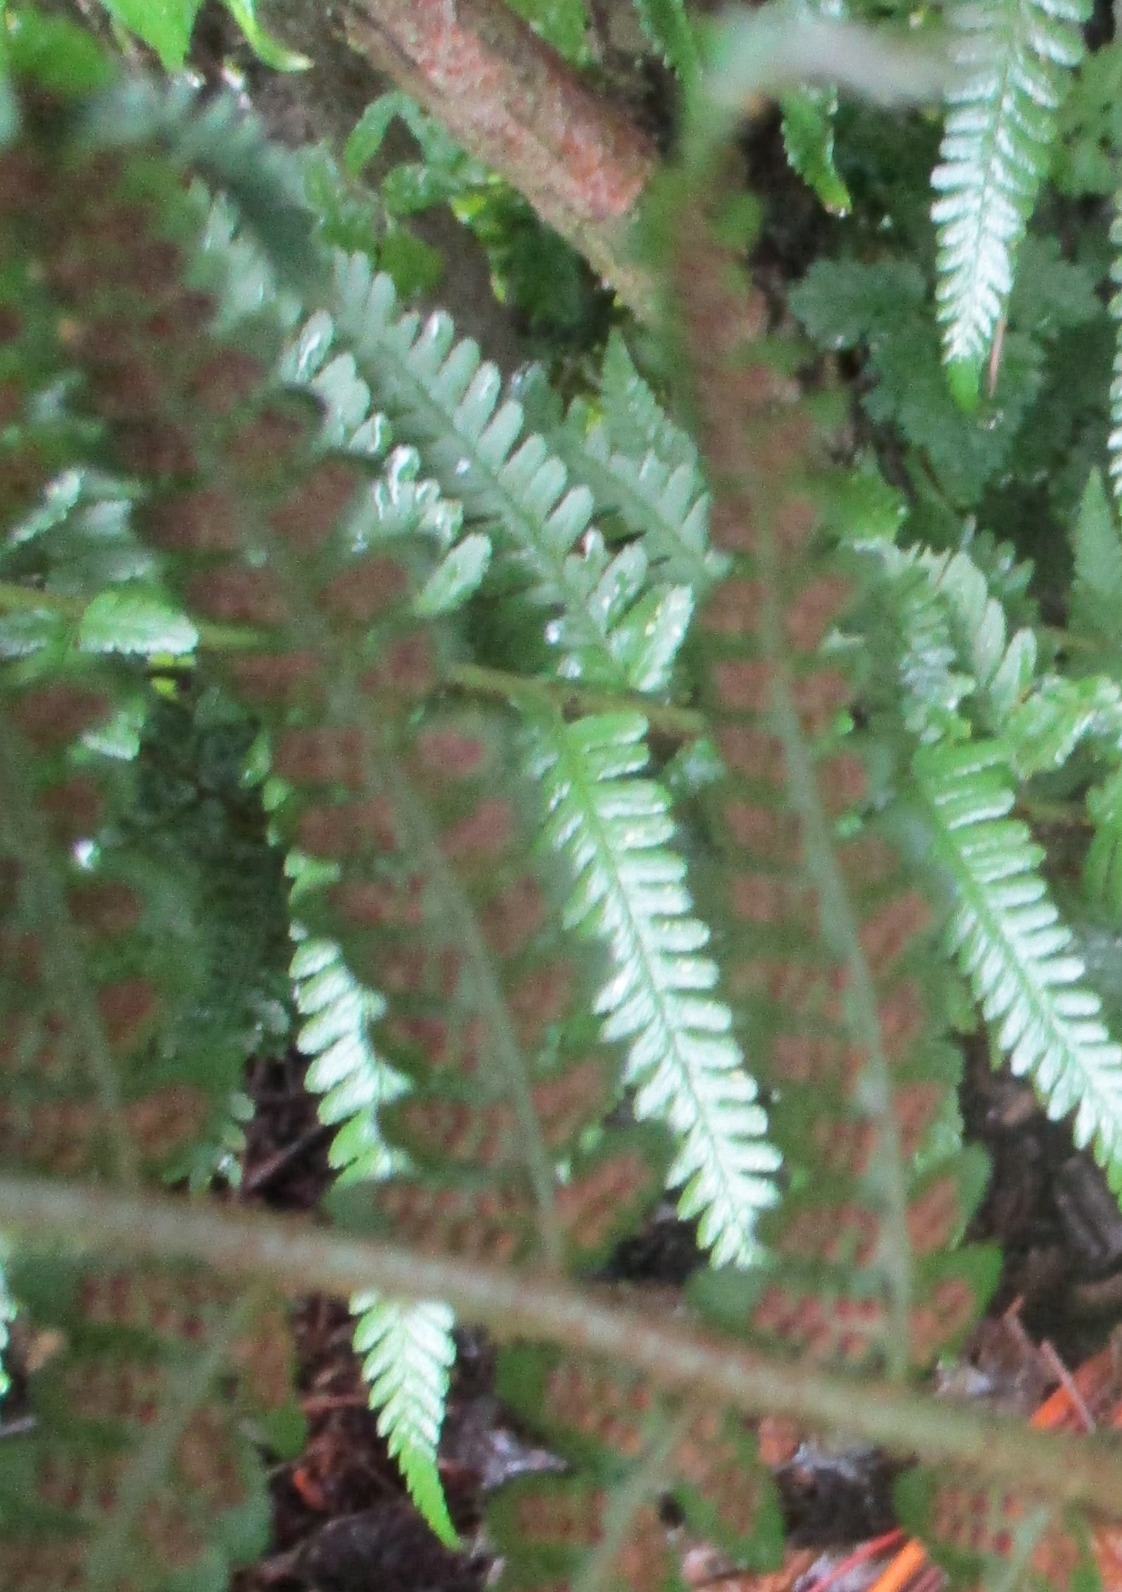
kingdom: Plantae
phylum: Tracheophyta
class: Polypodiopsida
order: Polypodiales
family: Dryopteridaceae
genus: Dryopteris
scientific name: Dryopteris filix-mas
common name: Almindelig mangeløv
